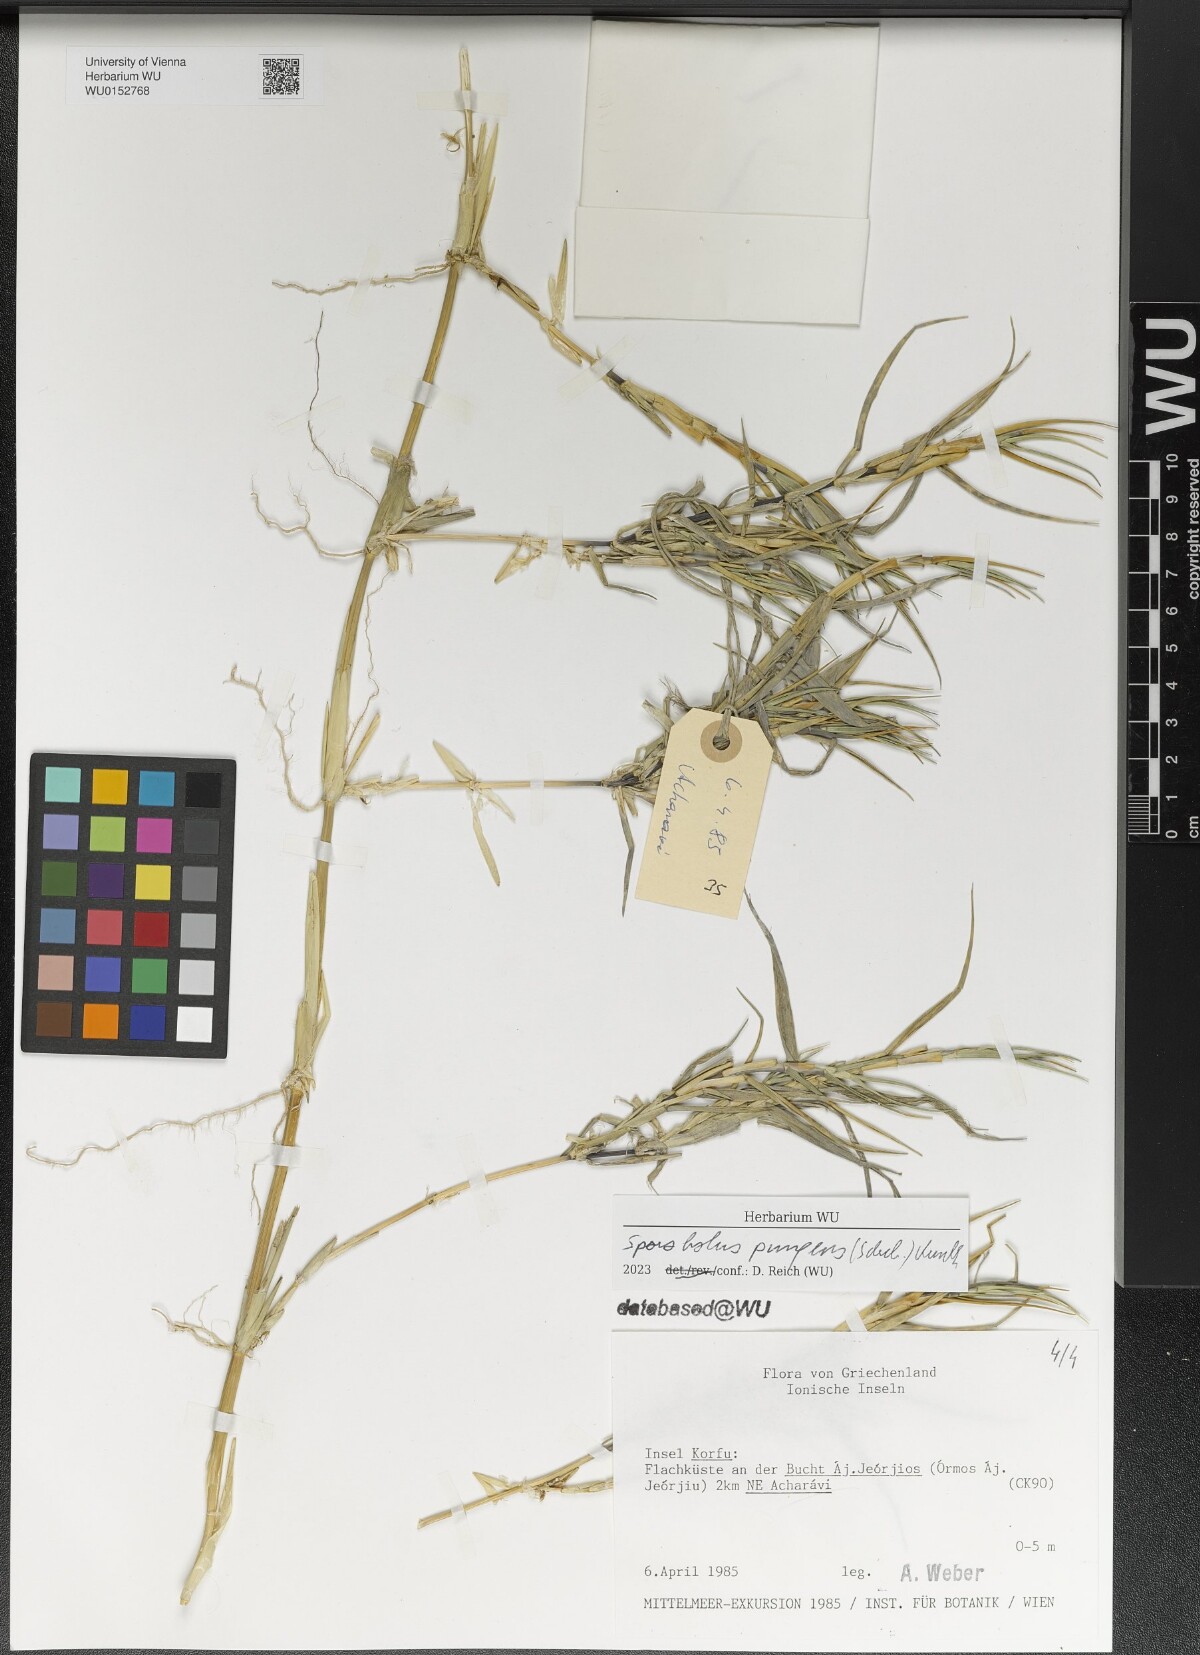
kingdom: Plantae
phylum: Tracheophyta
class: Liliopsida
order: Poales
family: Poaceae
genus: Sporobolus
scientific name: Sporobolus pungens
